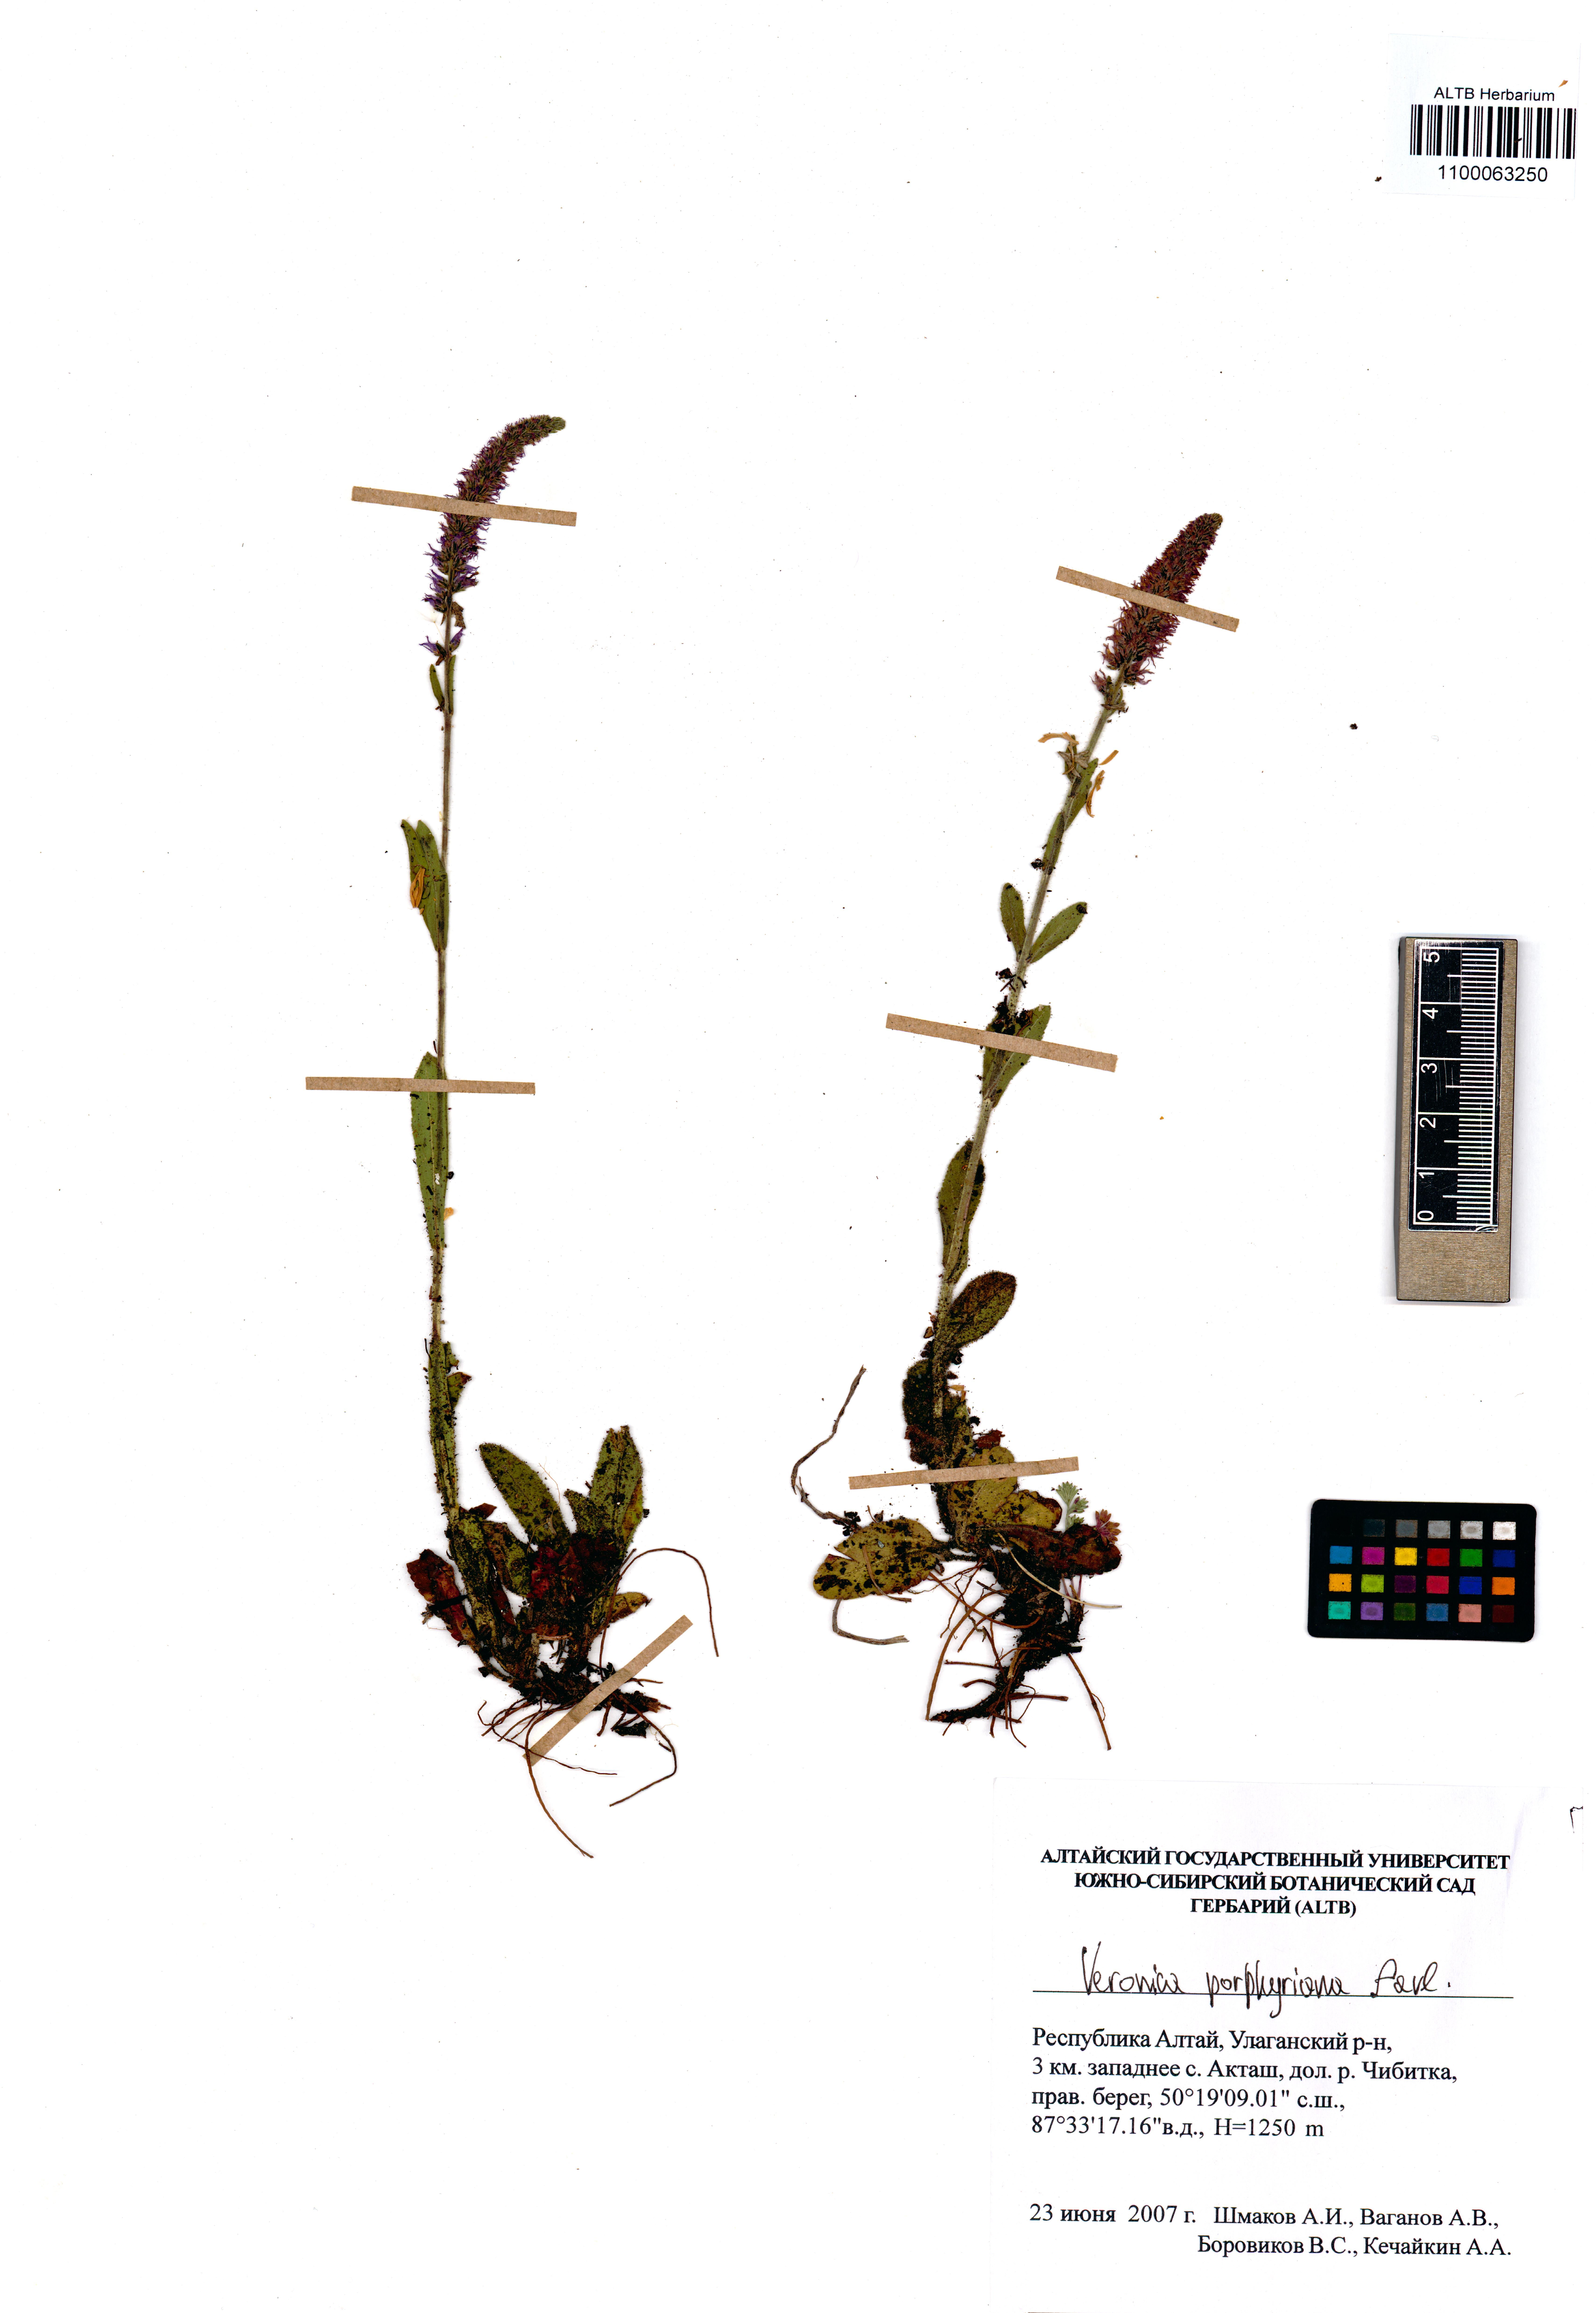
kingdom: Plantae
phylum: Tracheophyta
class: Magnoliopsida
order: Lamiales
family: Plantaginaceae
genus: Veronica
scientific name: Veronica porphyriana
